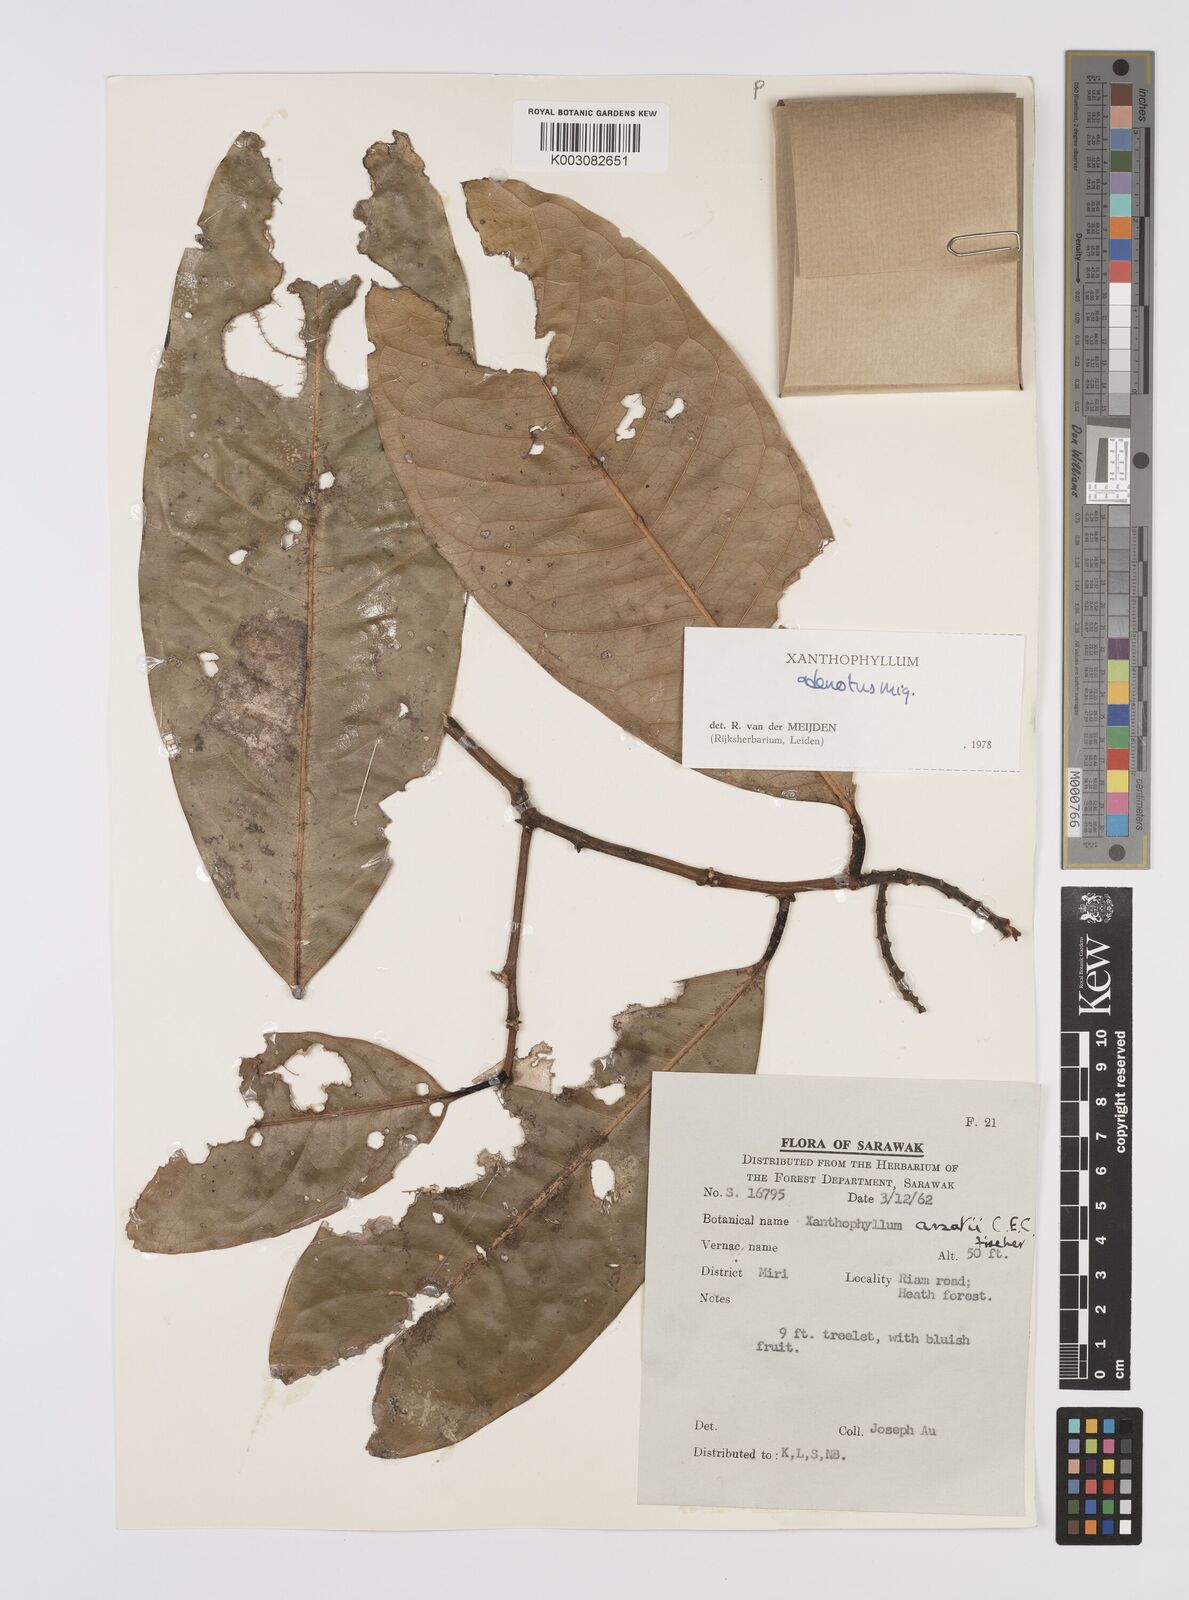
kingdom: Plantae
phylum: Tracheophyta
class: Magnoliopsida
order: Fabales
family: Polygalaceae
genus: Xanthophyllum
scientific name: Xanthophyllum adenotus
